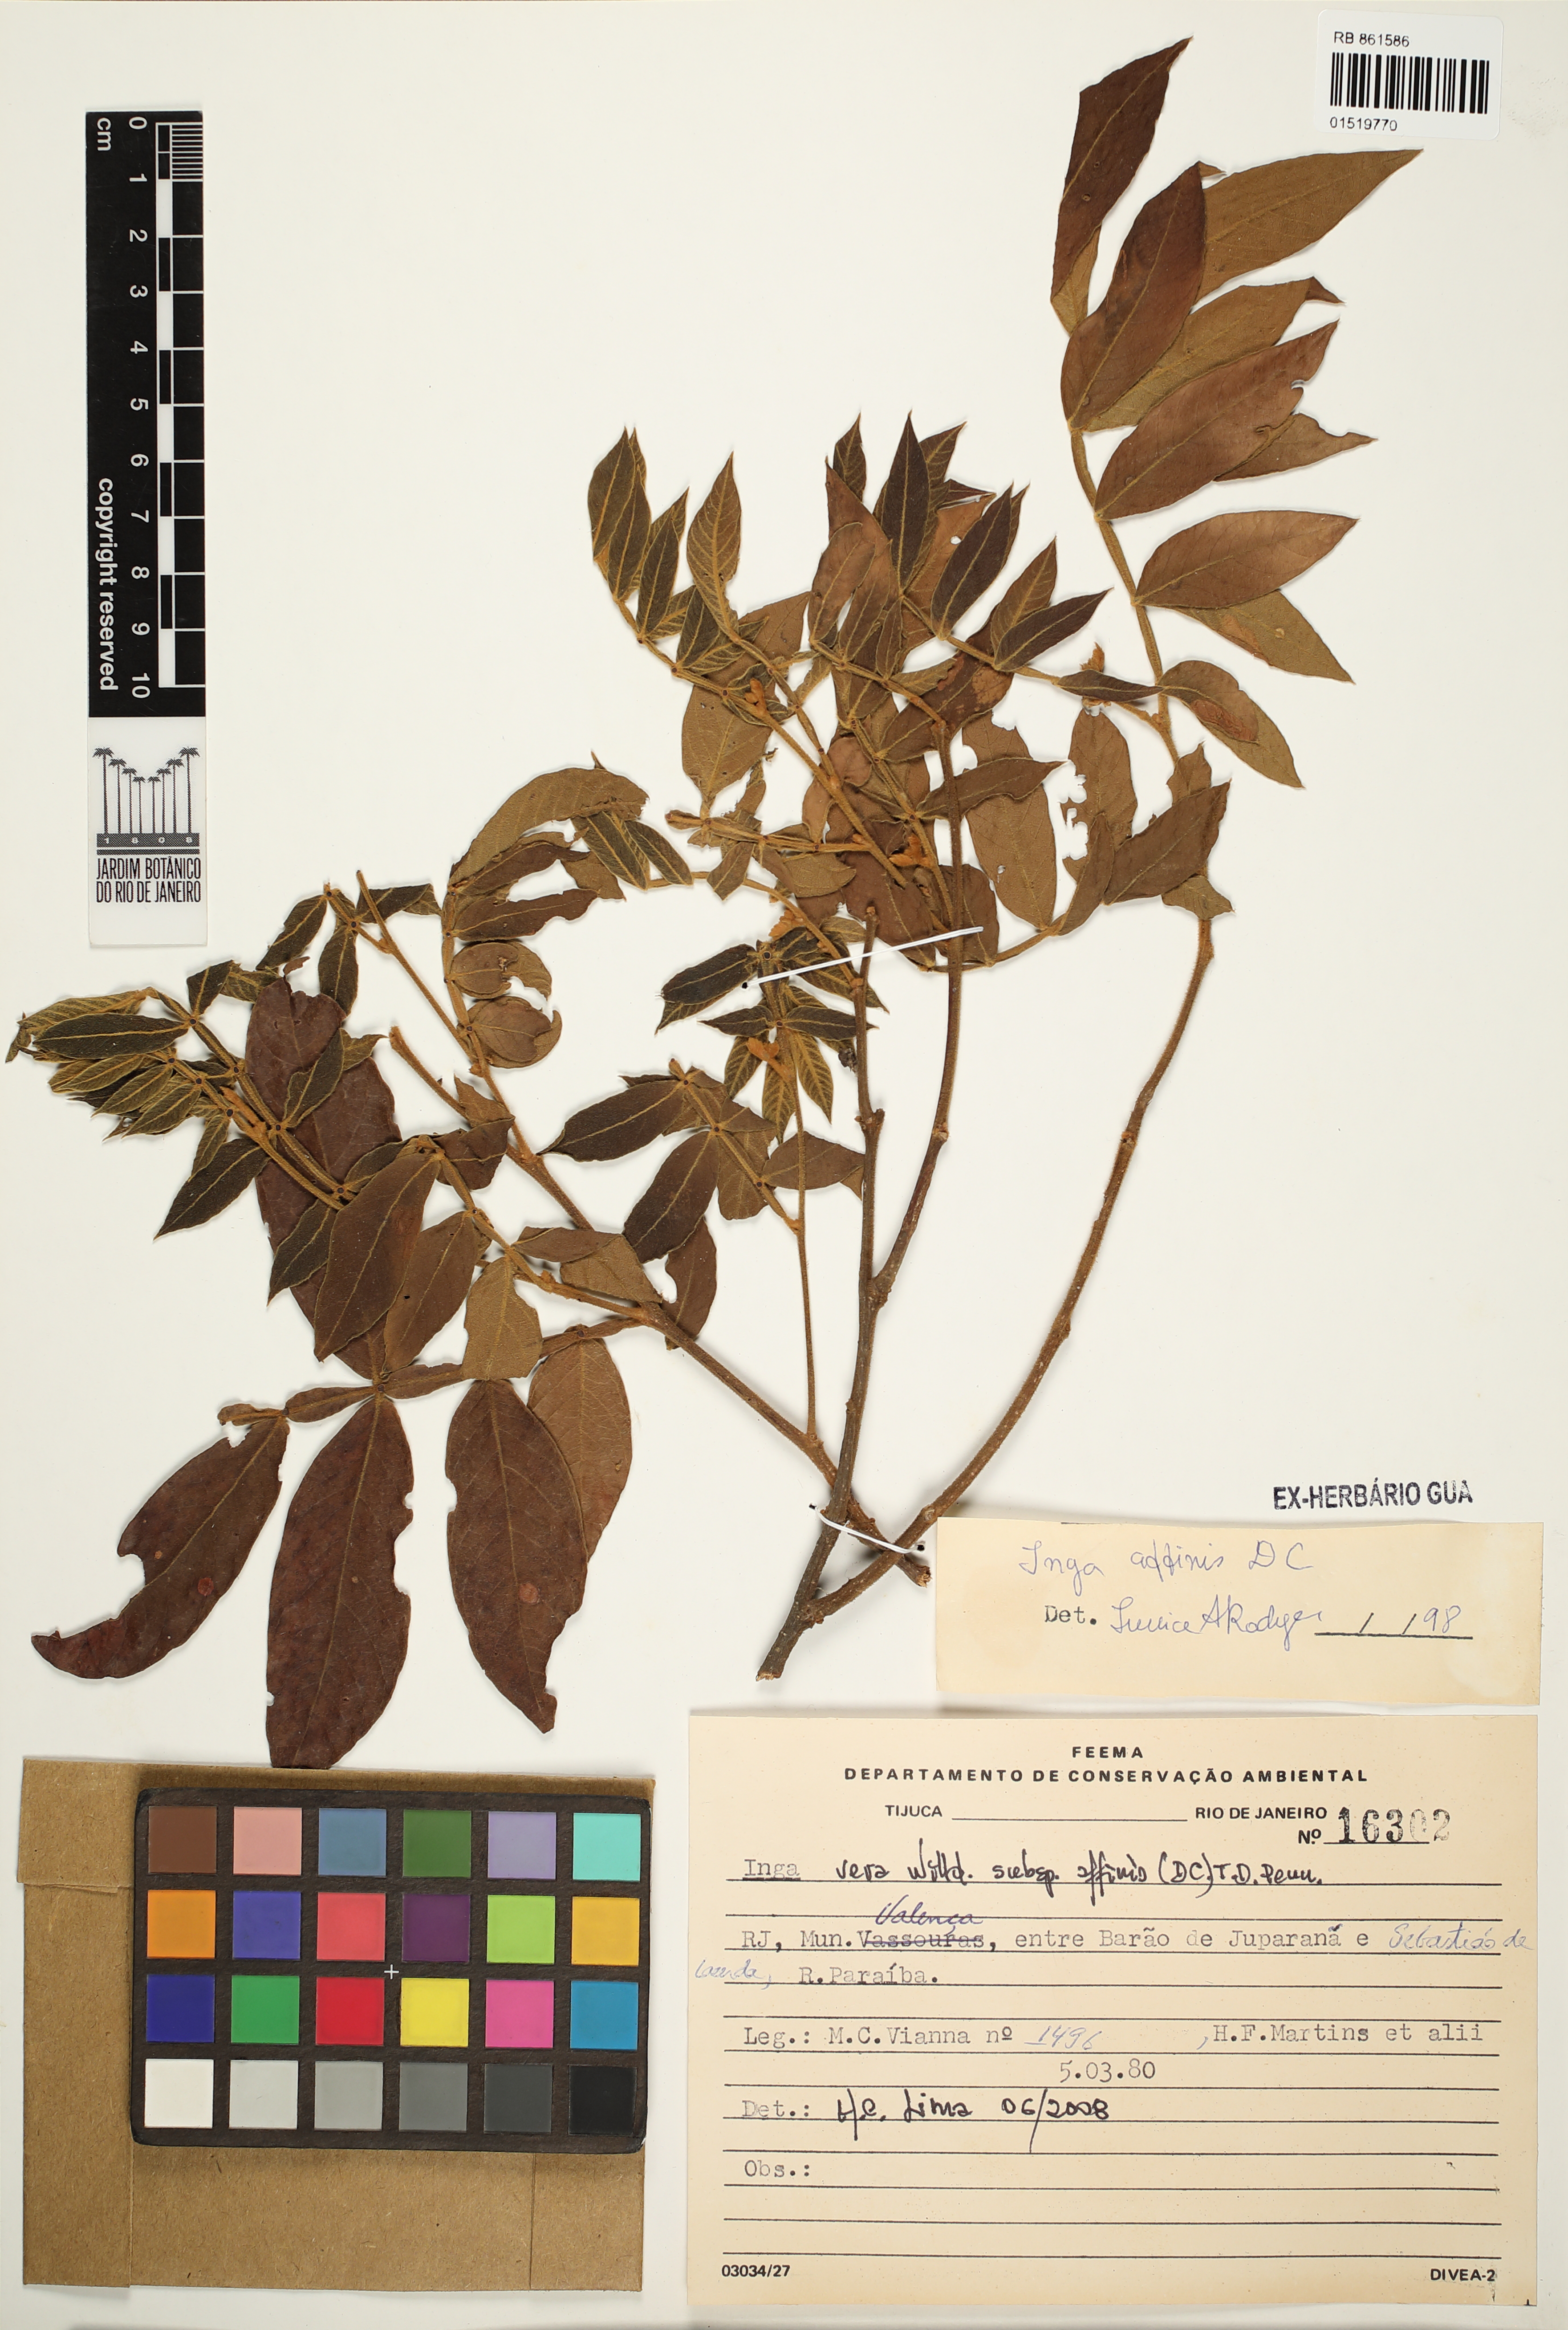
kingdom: Plantae
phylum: Tracheophyta
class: Magnoliopsida
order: Fabales
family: Fabaceae
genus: Inga
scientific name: Inga affinis
